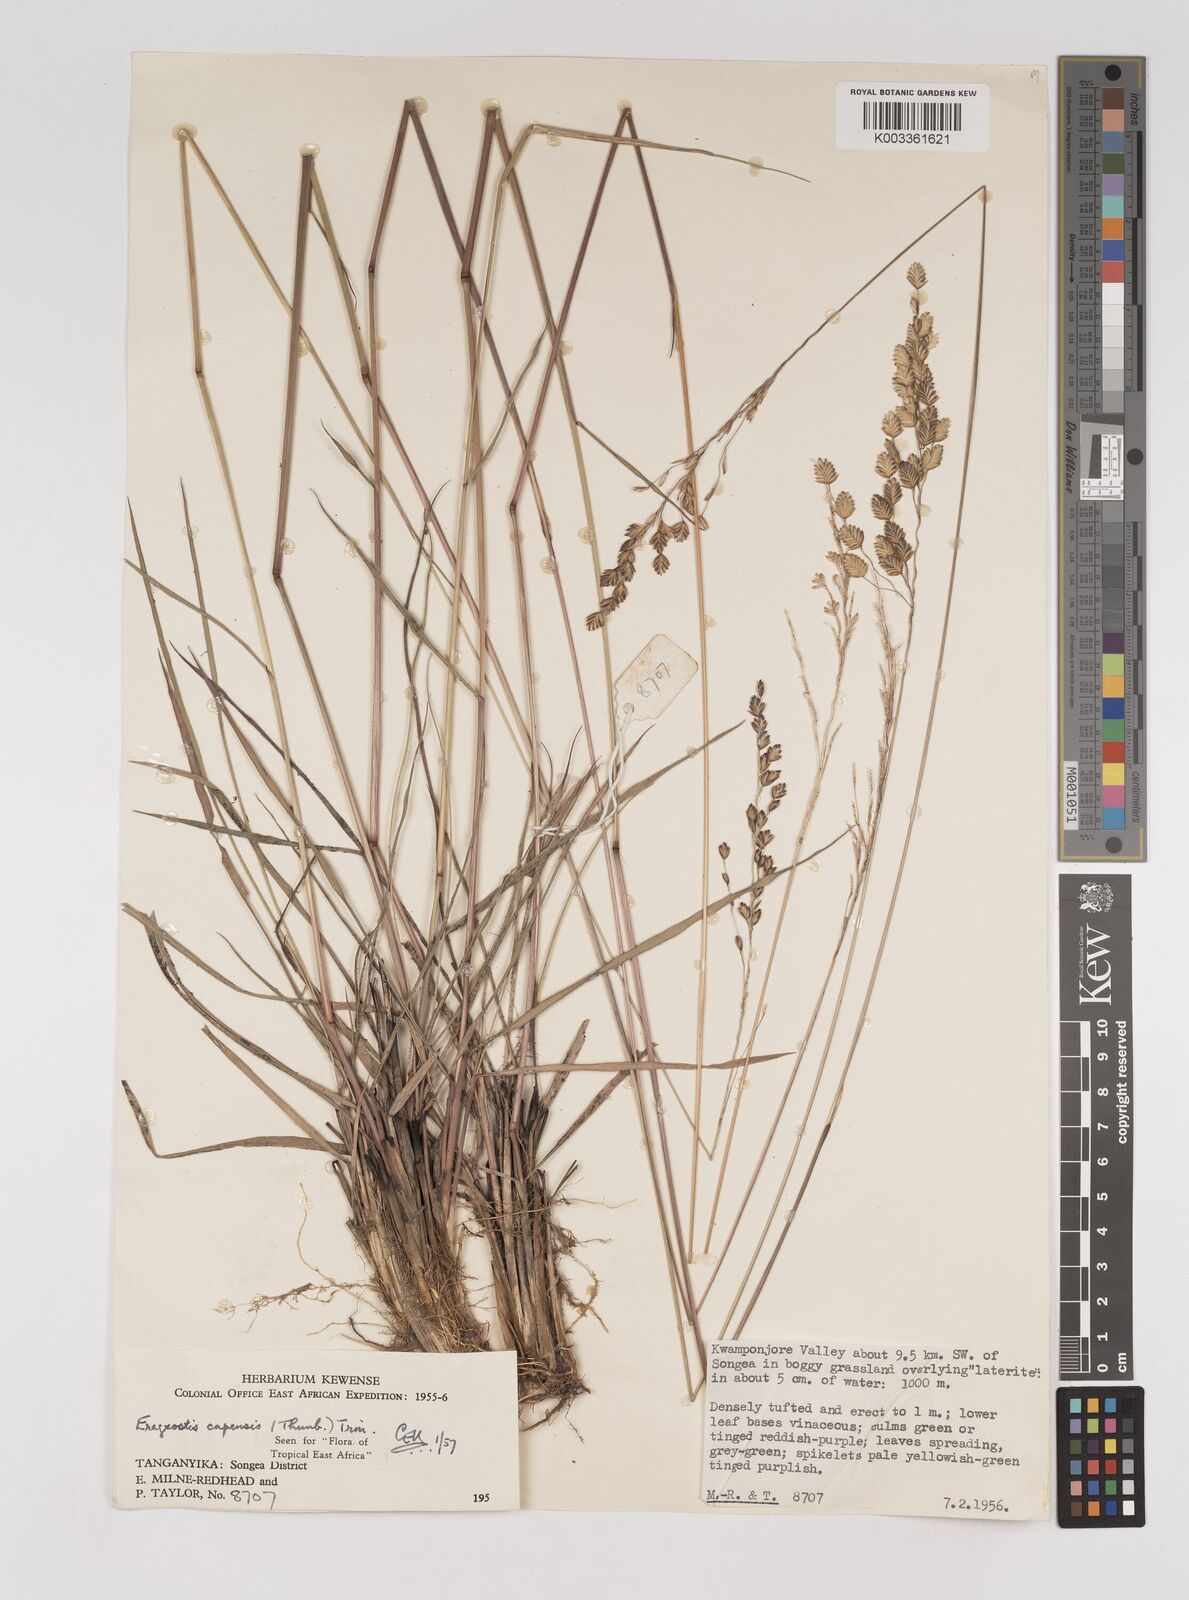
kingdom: Plantae
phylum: Tracheophyta
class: Liliopsida
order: Poales
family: Poaceae
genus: Eragrostis
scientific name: Eragrostis capensis
